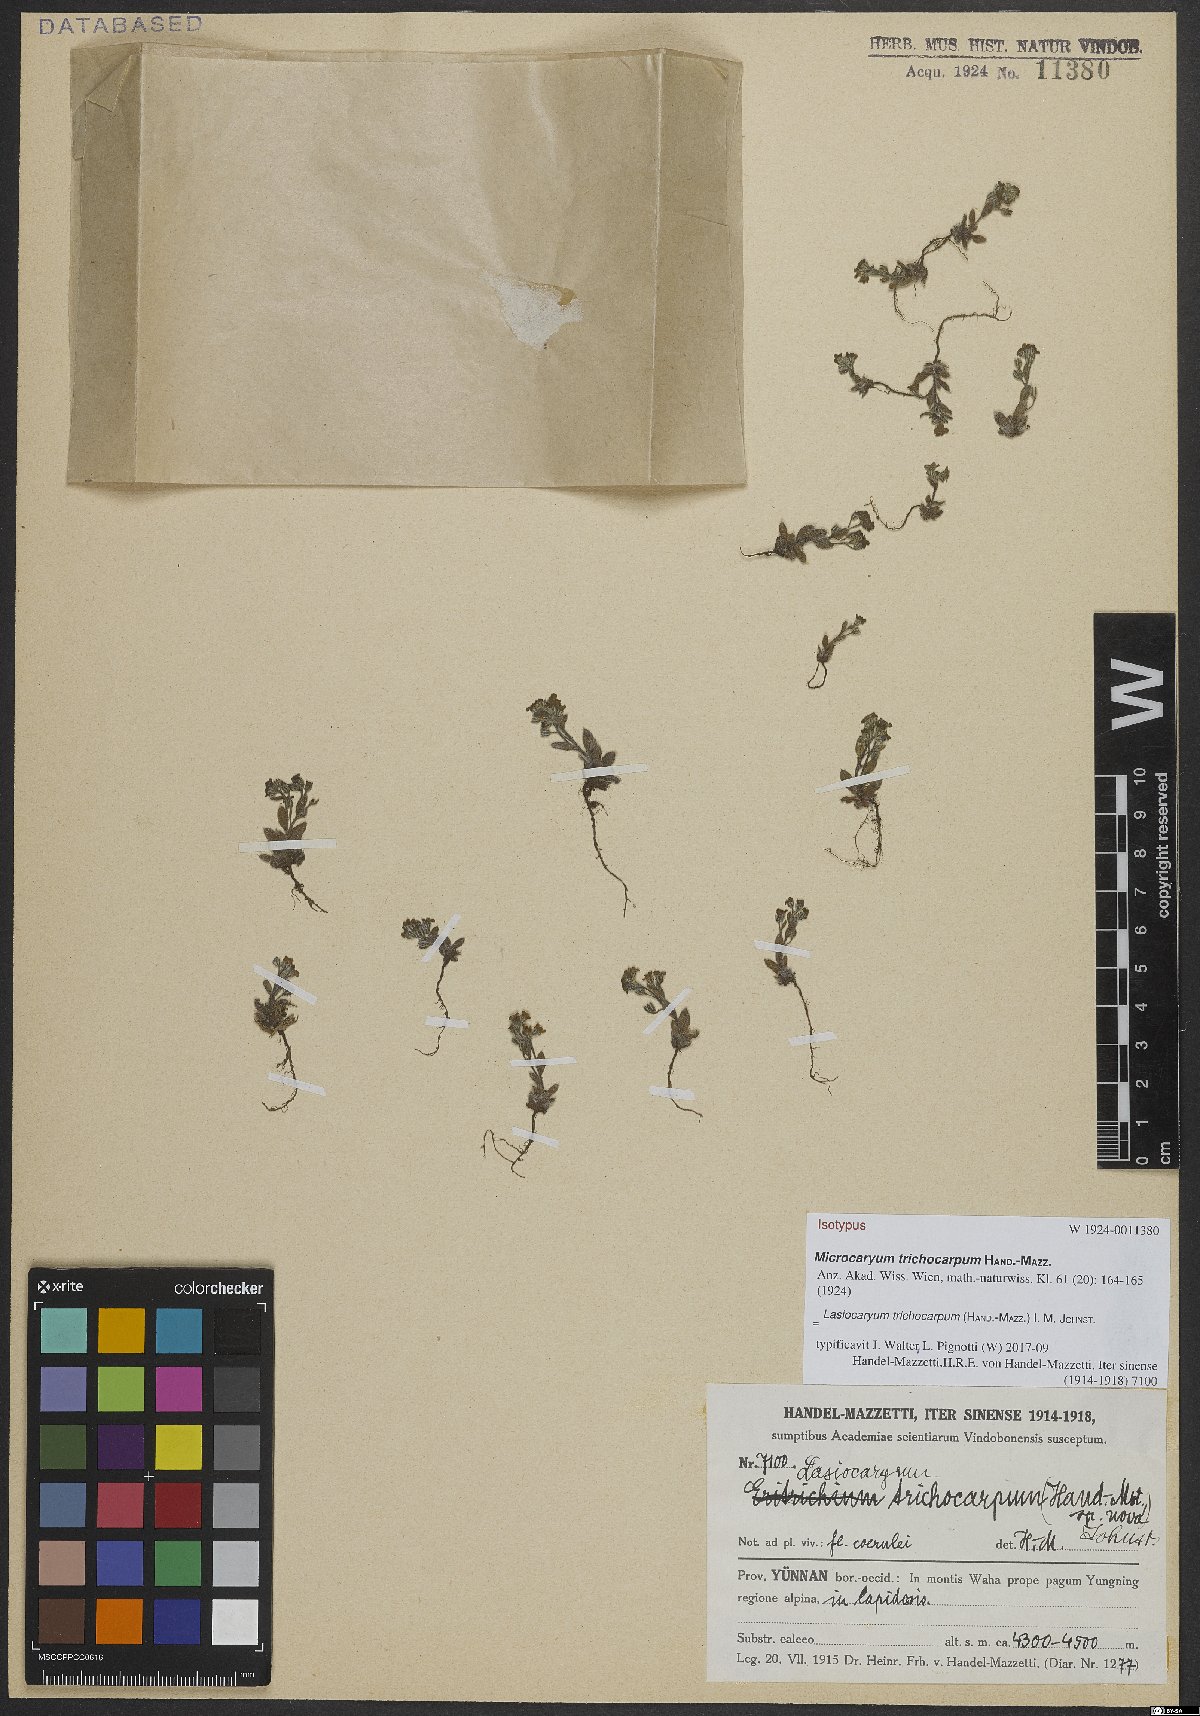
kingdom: Plantae
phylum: Tracheophyta
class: Magnoliopsida
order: Boraginales
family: Boraginaceae
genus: Lasiocaryum
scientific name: Lasiocaryum trichocarpum
